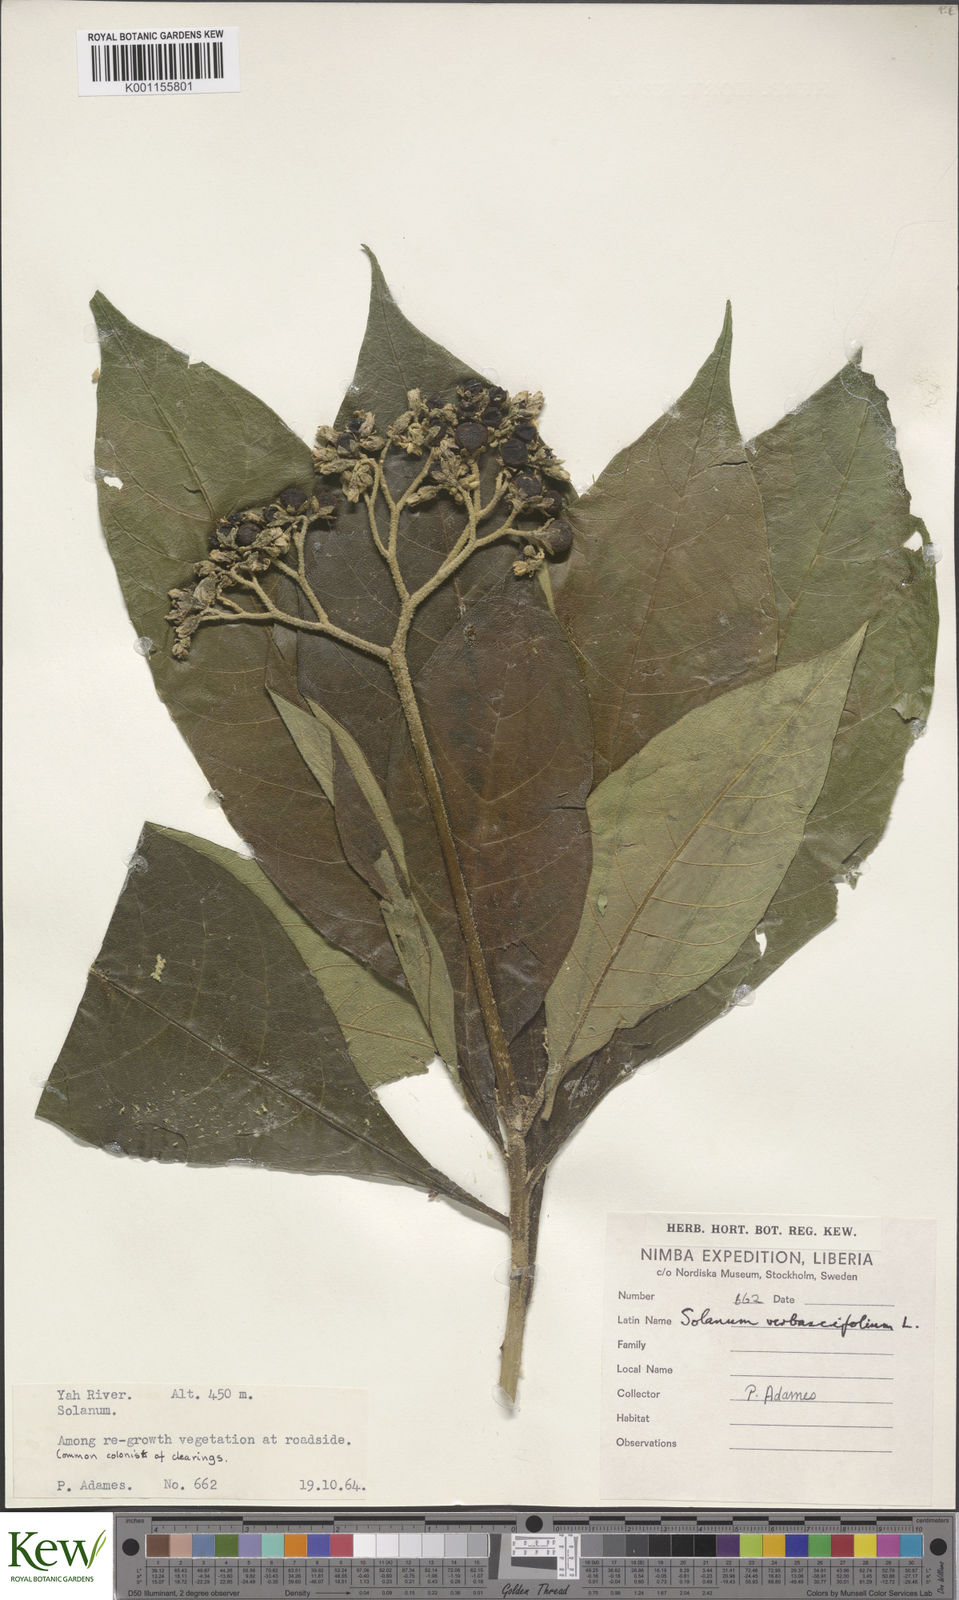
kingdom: Plantae
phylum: Tracheophyta
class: Magnoliopsida
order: Solanales
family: Solanaceae
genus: Solanum
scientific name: Solanum rugosum
